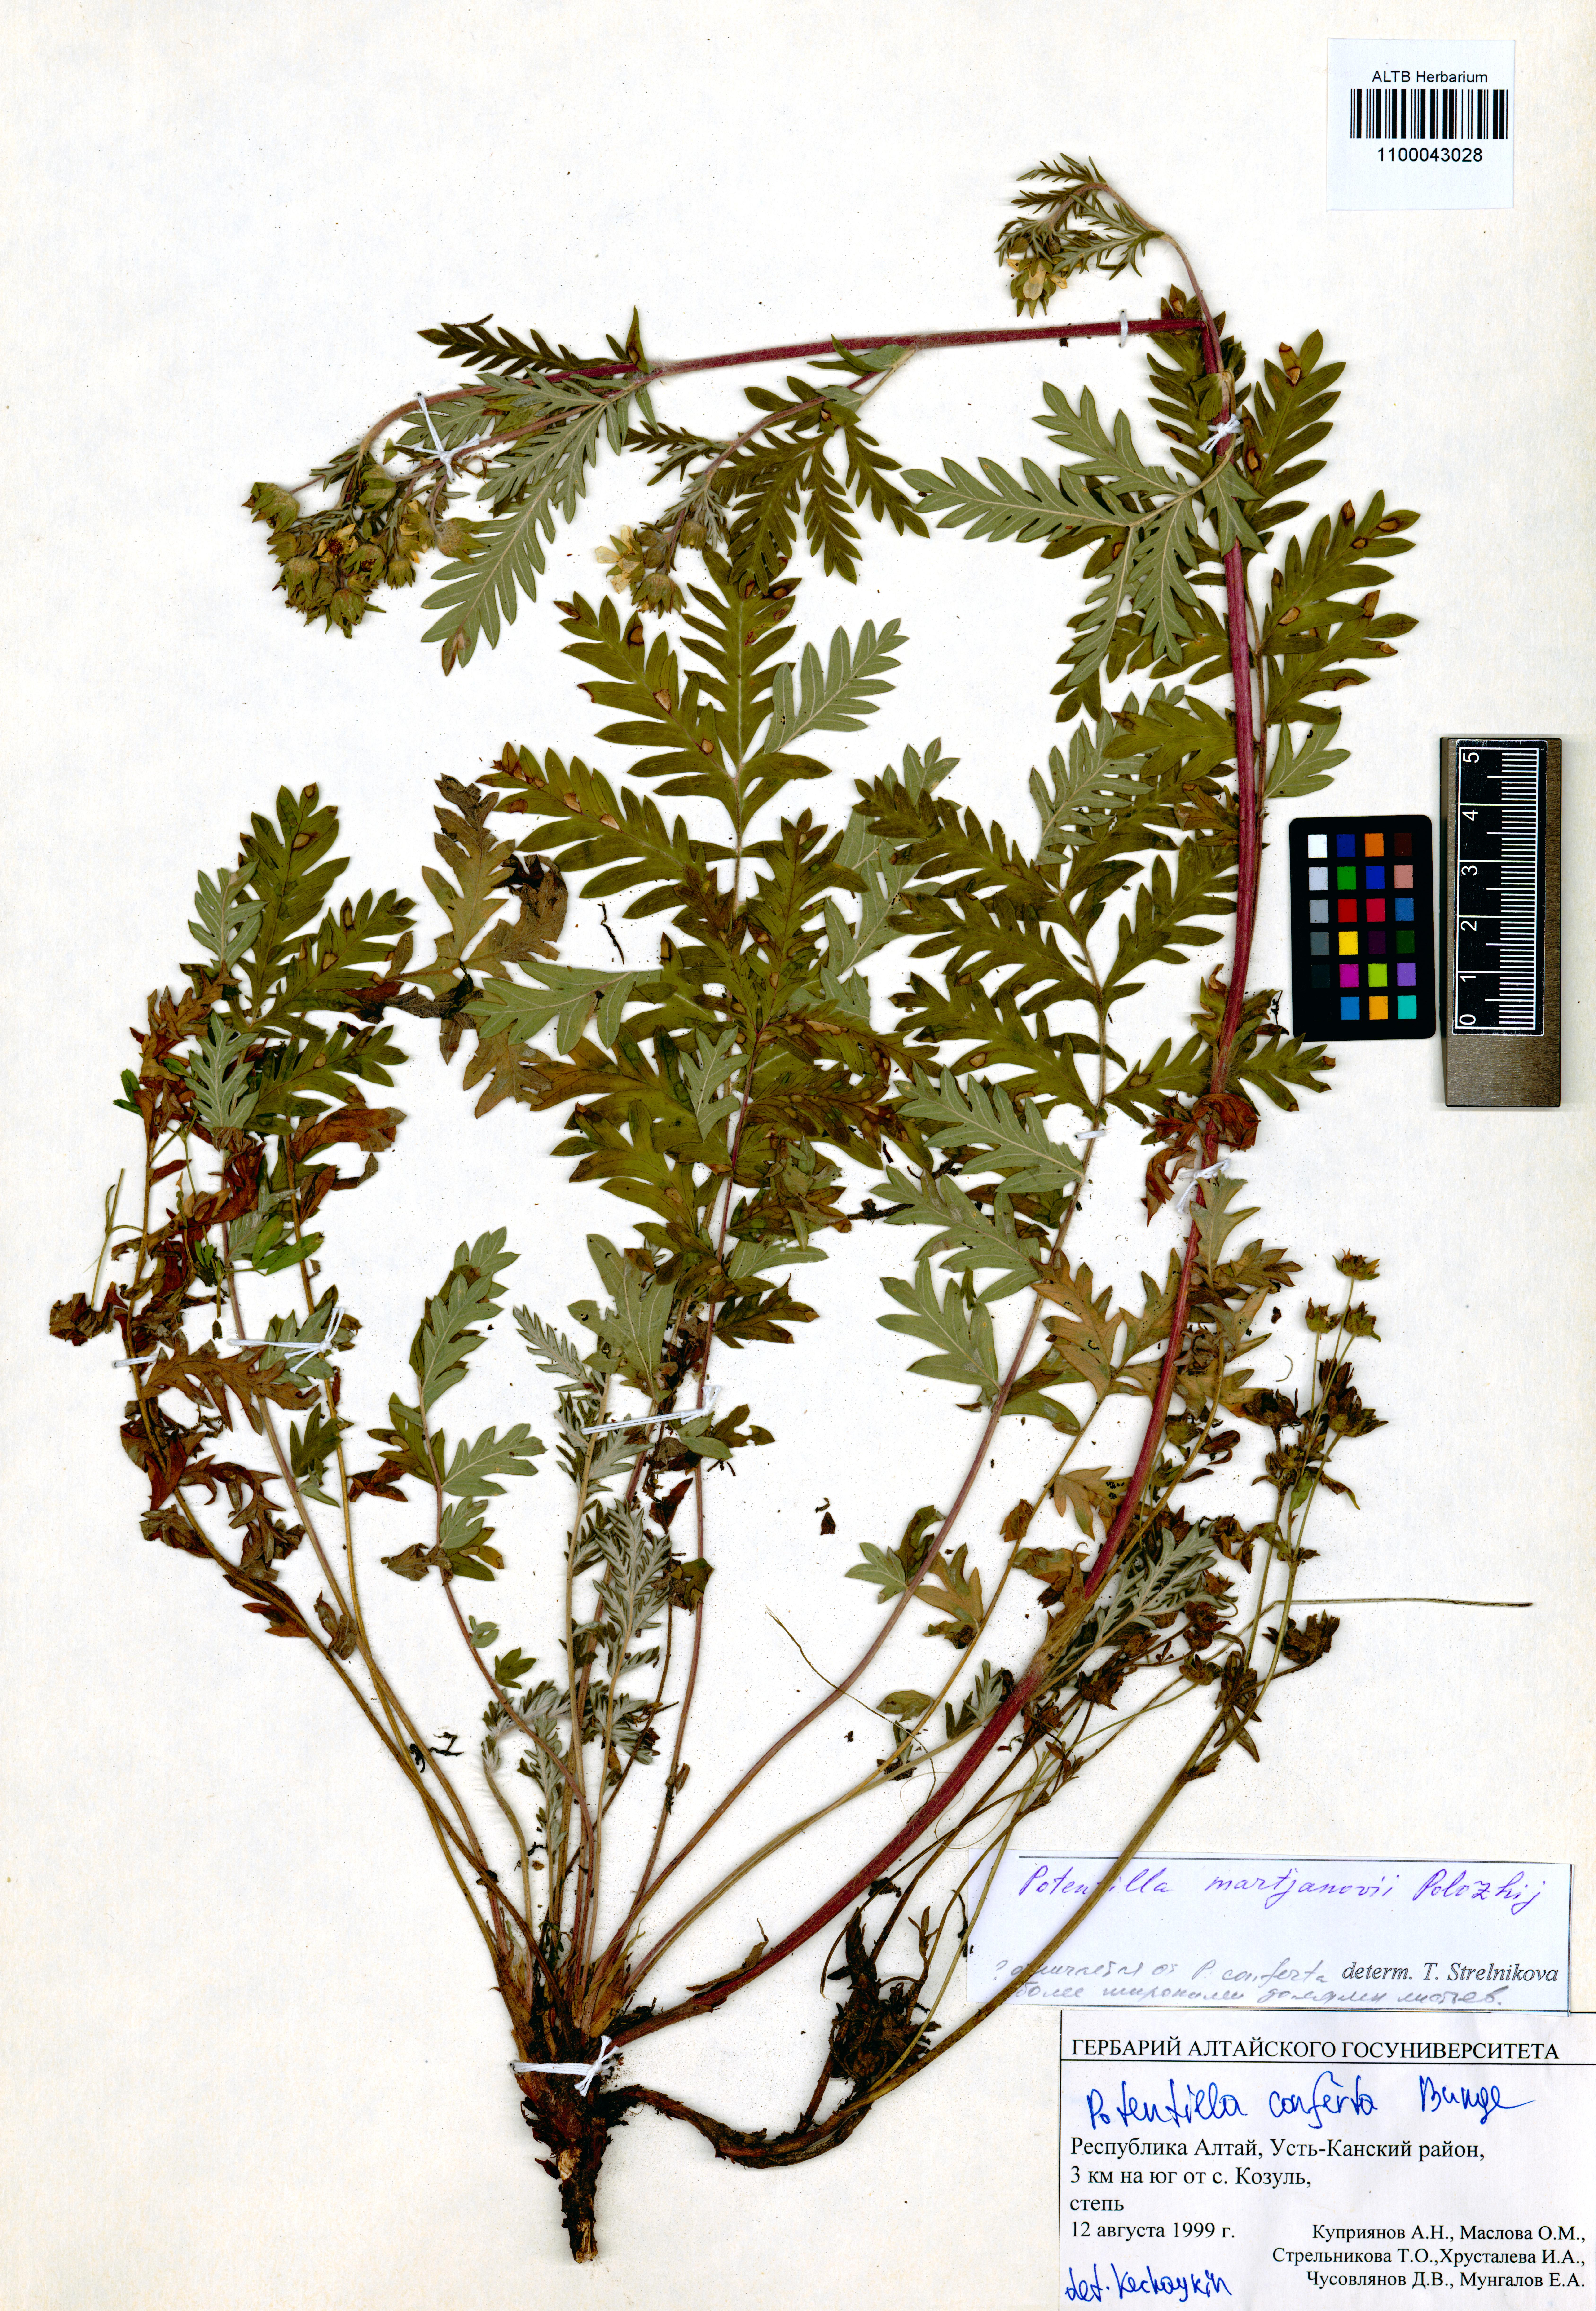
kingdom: Plantae
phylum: Tracheophyta
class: Magnoliopsida
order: Rosales
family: Rosaceae
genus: Potentilla
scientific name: Potentilla conferta
